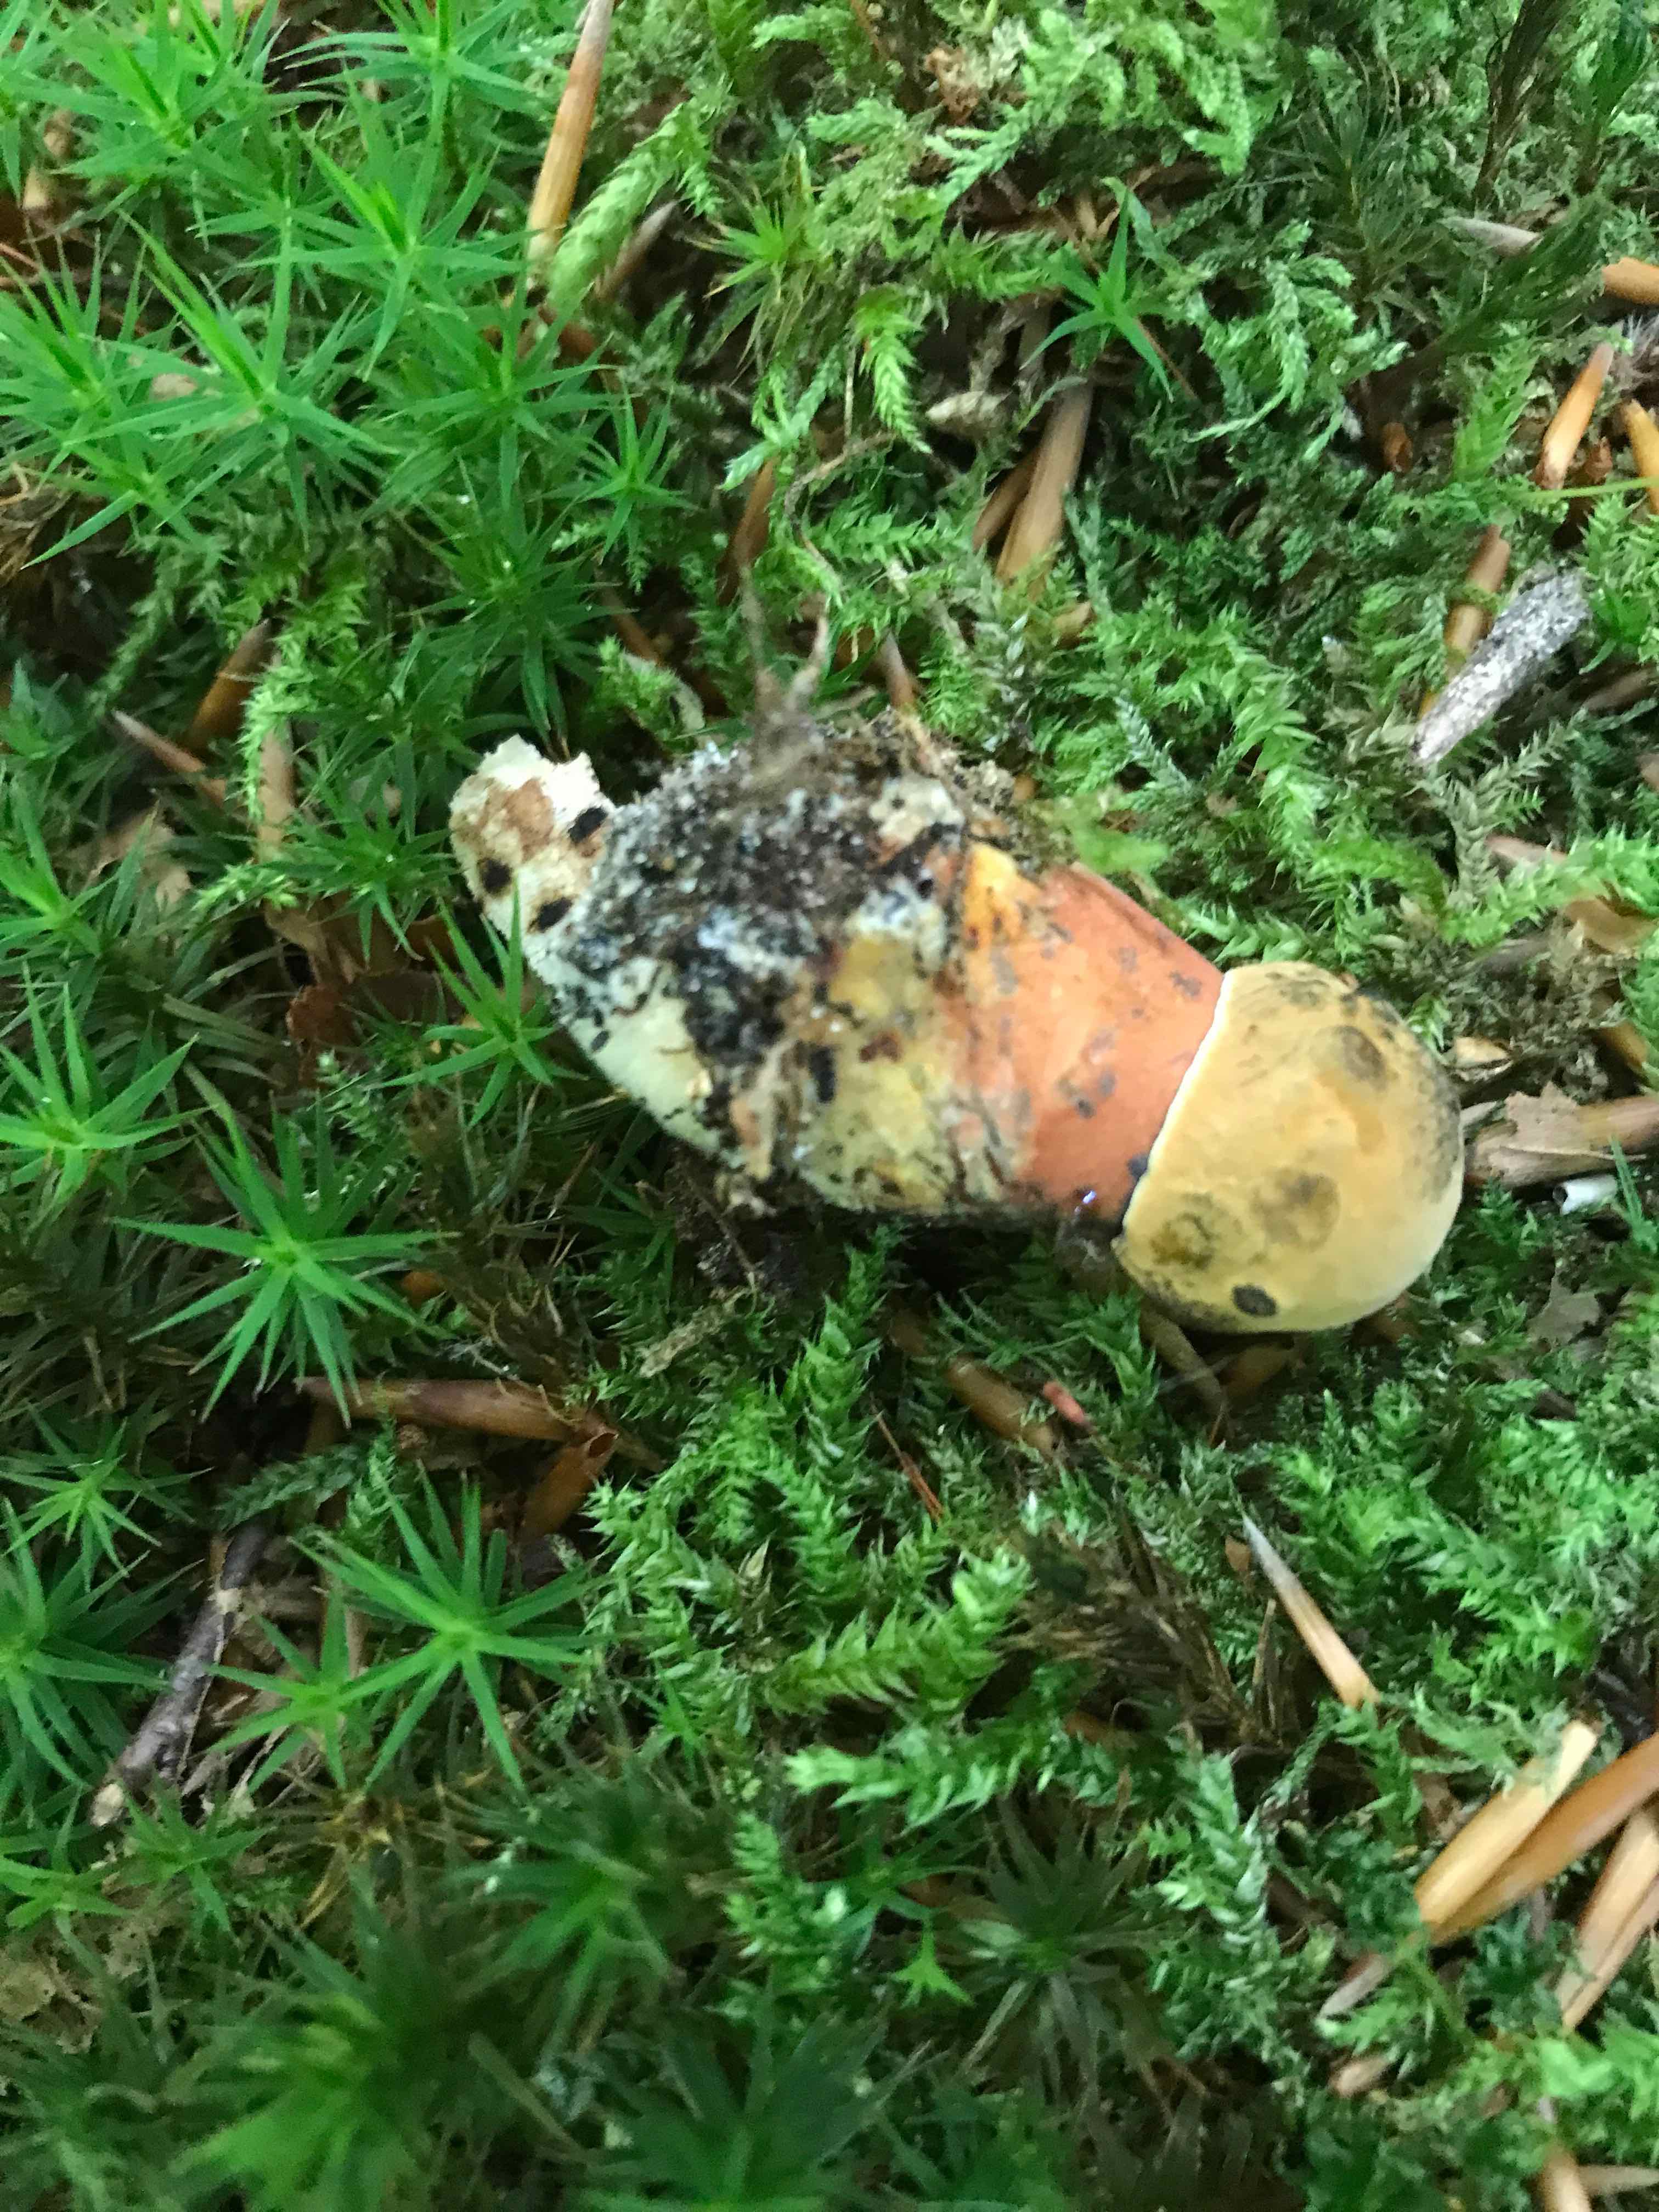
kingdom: Fungi
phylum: Basidiomycota
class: Agaricomycetes
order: Boletales
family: Boletaceae
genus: Neoboletus
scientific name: Neoboletus erythropus
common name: punktstokket indigorørhat
